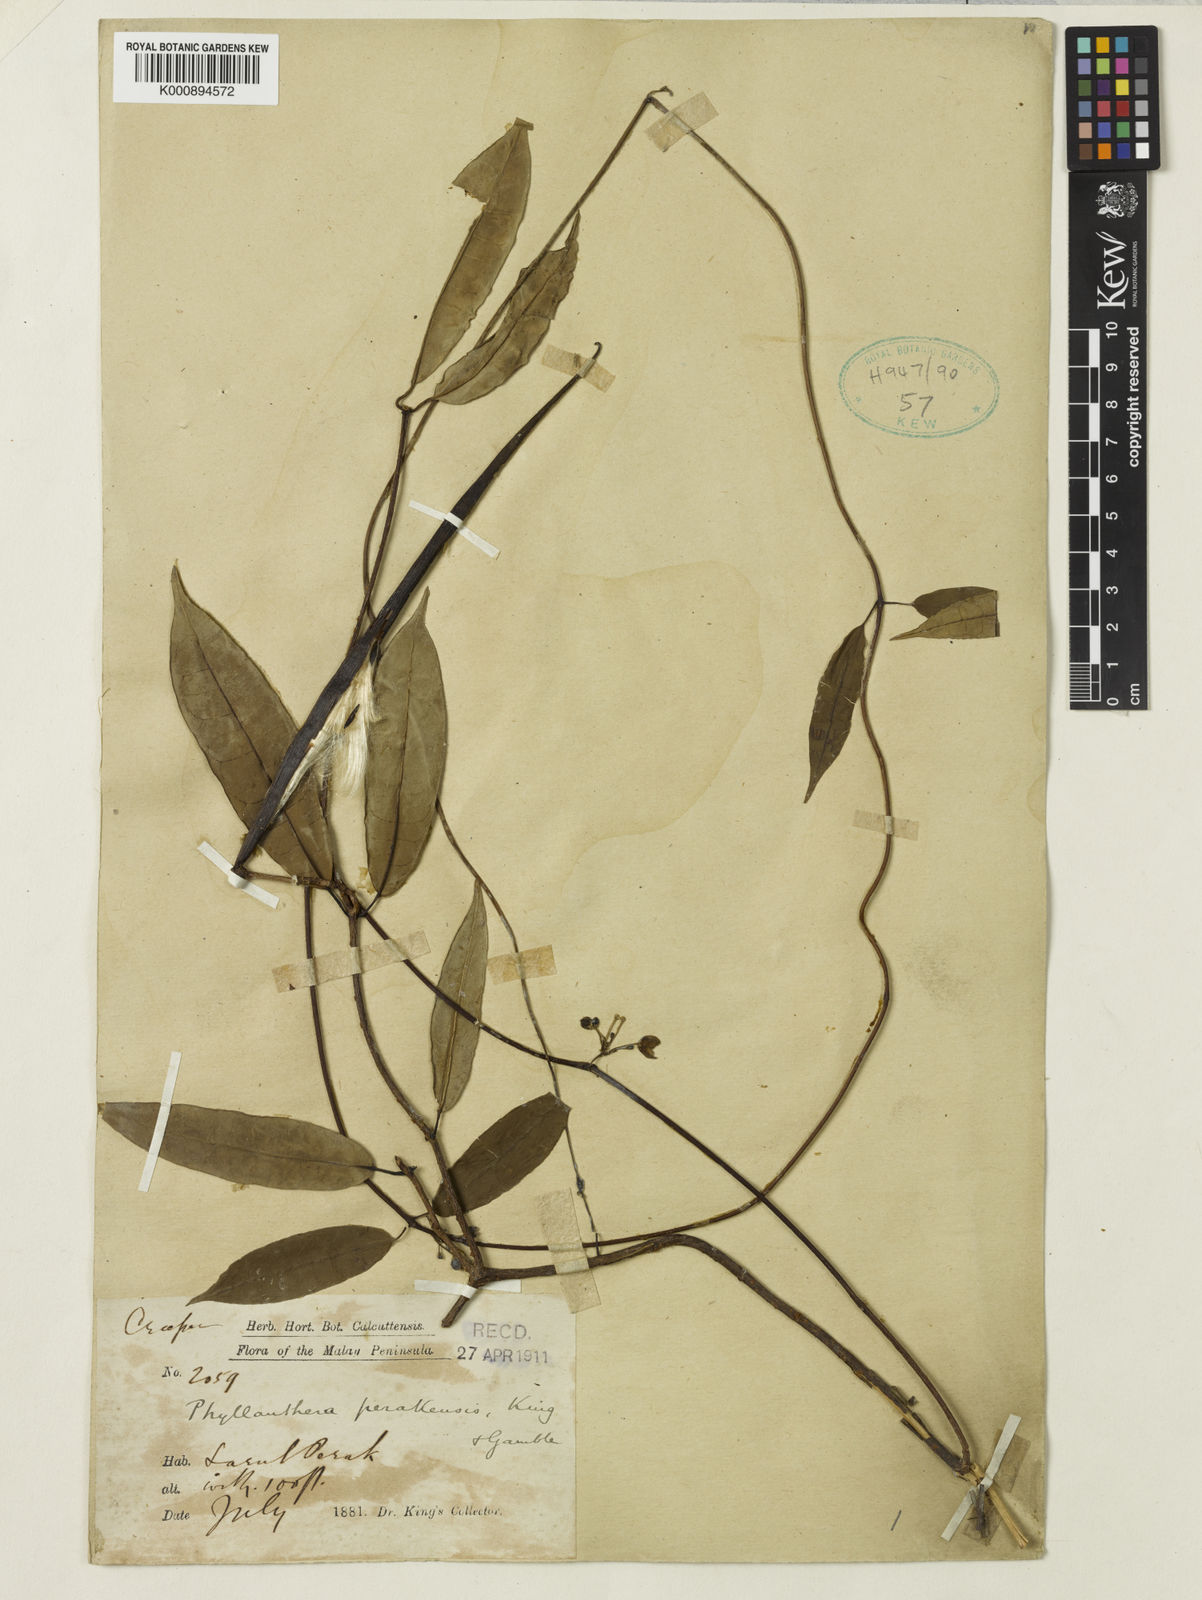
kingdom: Plantae
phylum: Tracheophyta
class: Magnoliopsida
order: Gentianales
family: Apocynaceae
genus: Phyllanthera
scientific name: Phyllanthera perakensis
